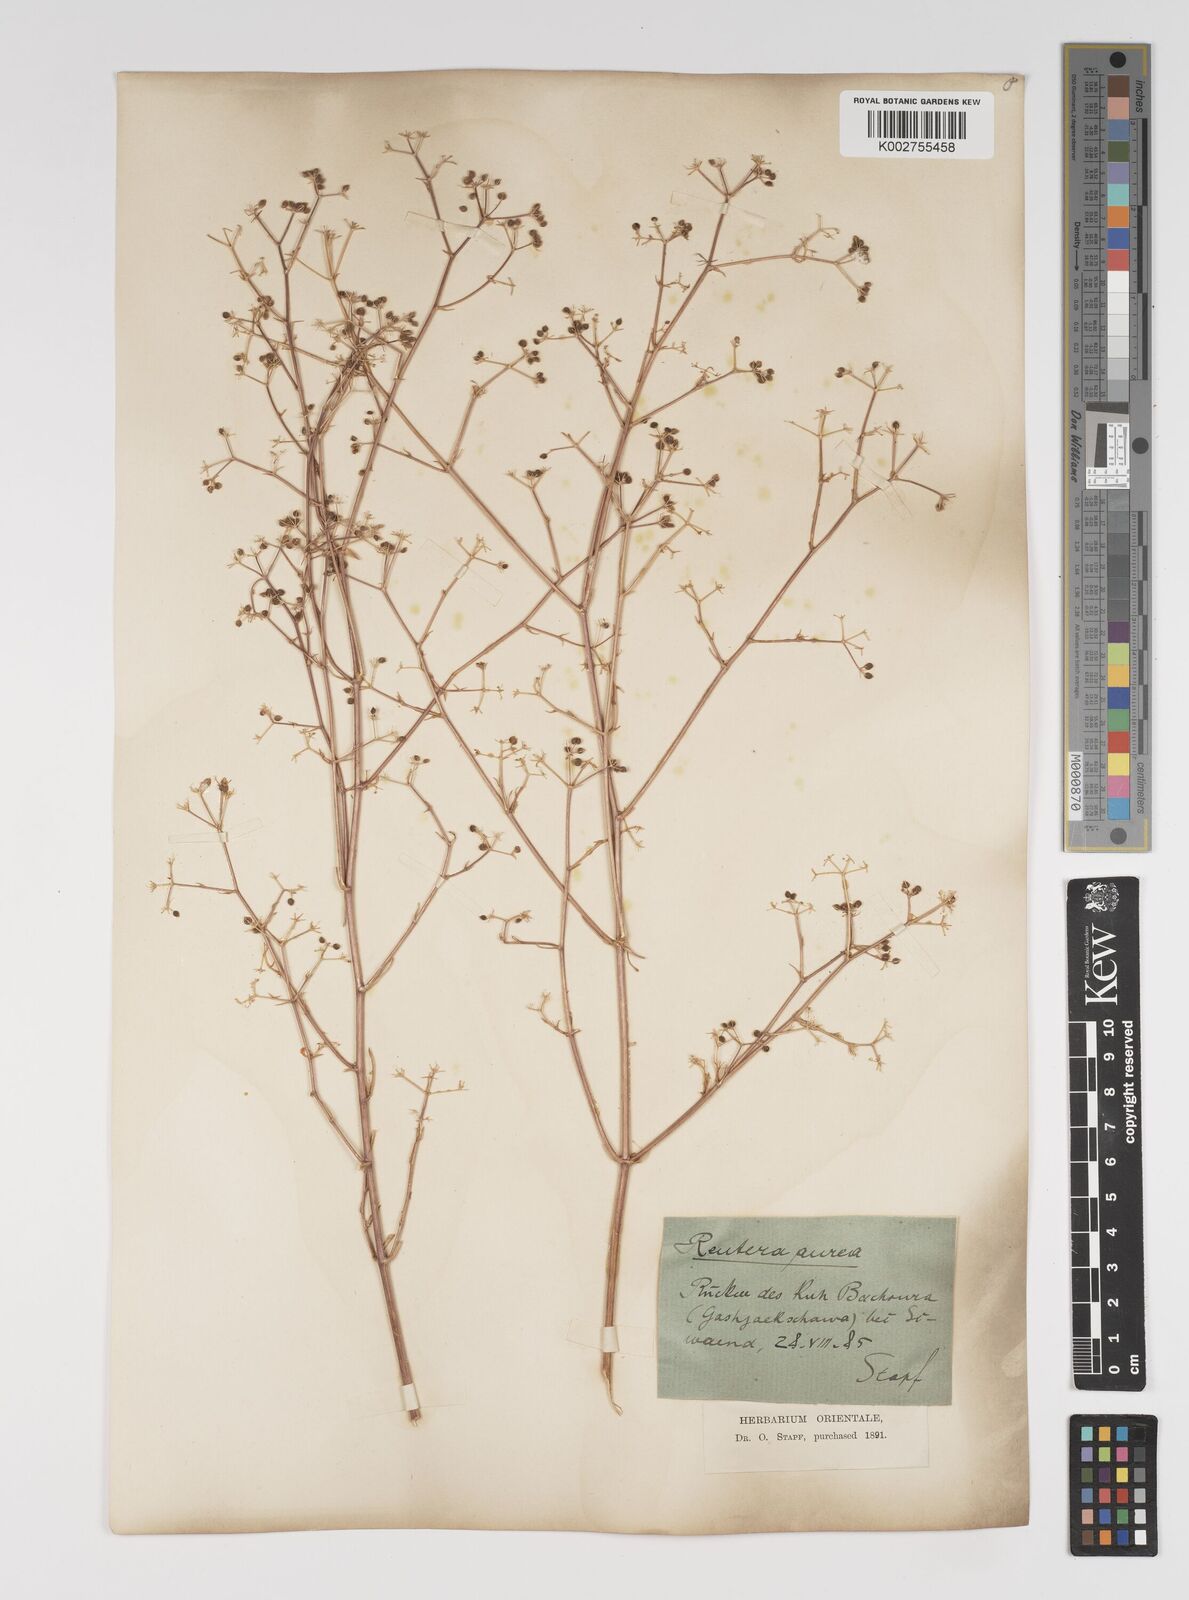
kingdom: Plantae
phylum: Tracheophyta
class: Magnoliopsida
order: Apiales
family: Apiaceae
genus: Pimpinella
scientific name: Pimpinella aurea
